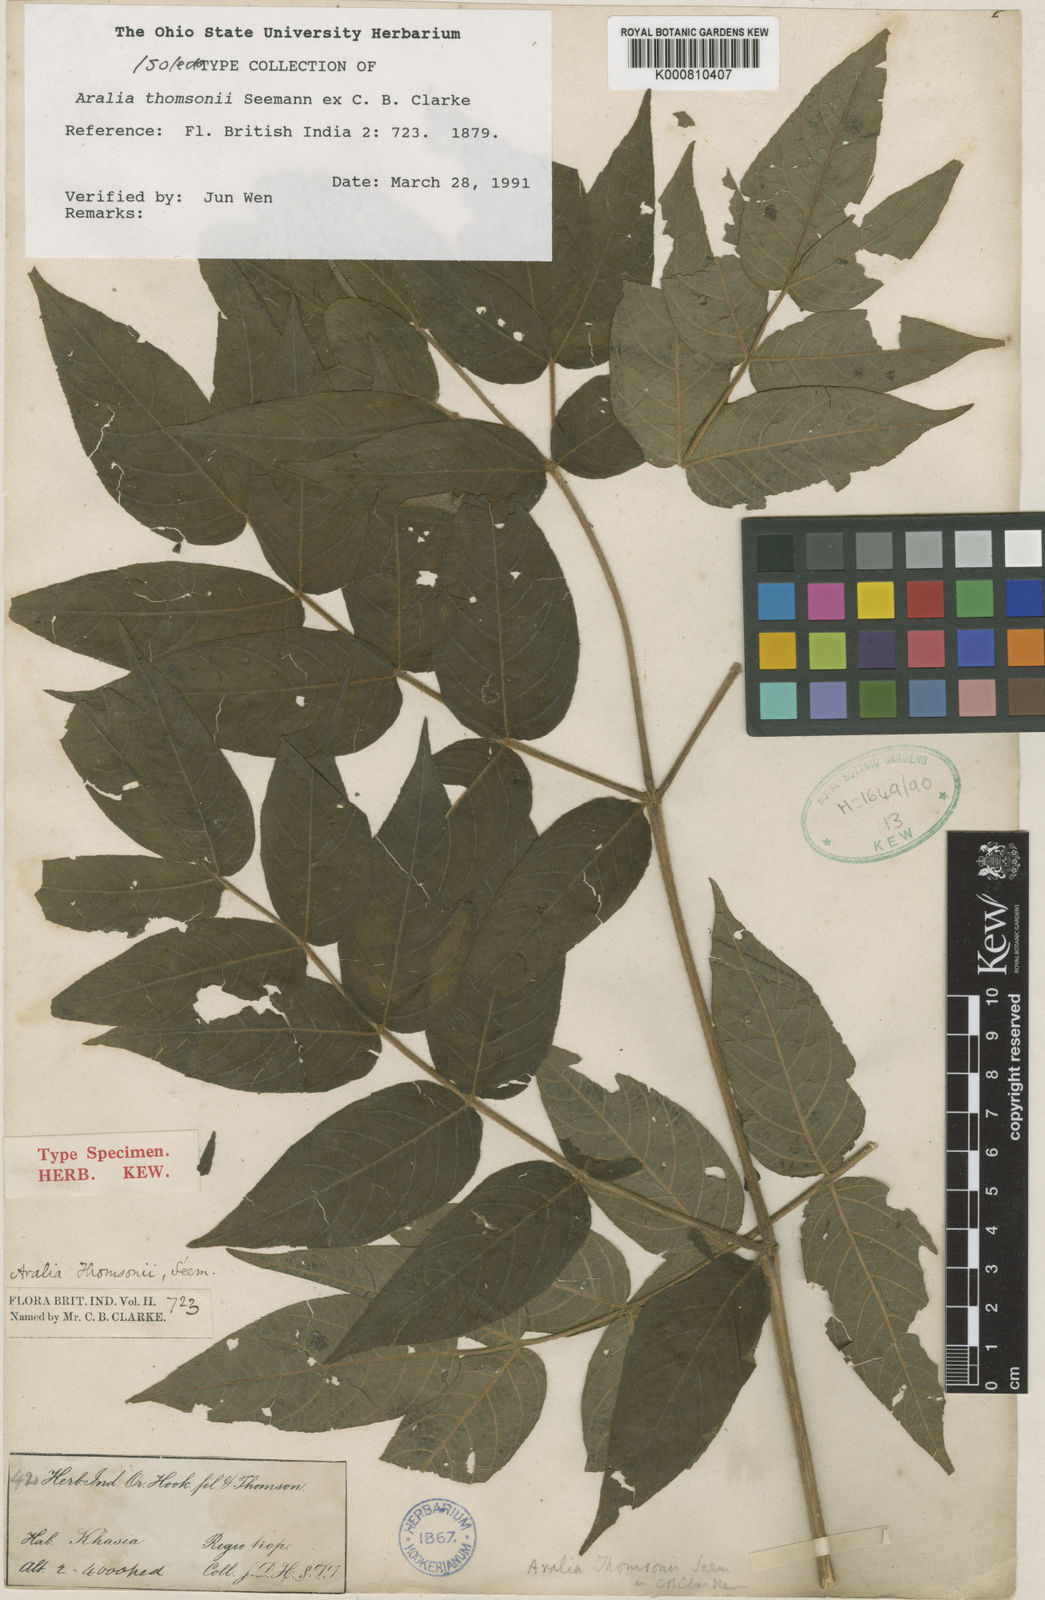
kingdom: Plantae
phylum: Tracheophyta
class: Magnoliopsida
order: Apiales
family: Araliaceae
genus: Aralia
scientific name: Aralia thomsonii
